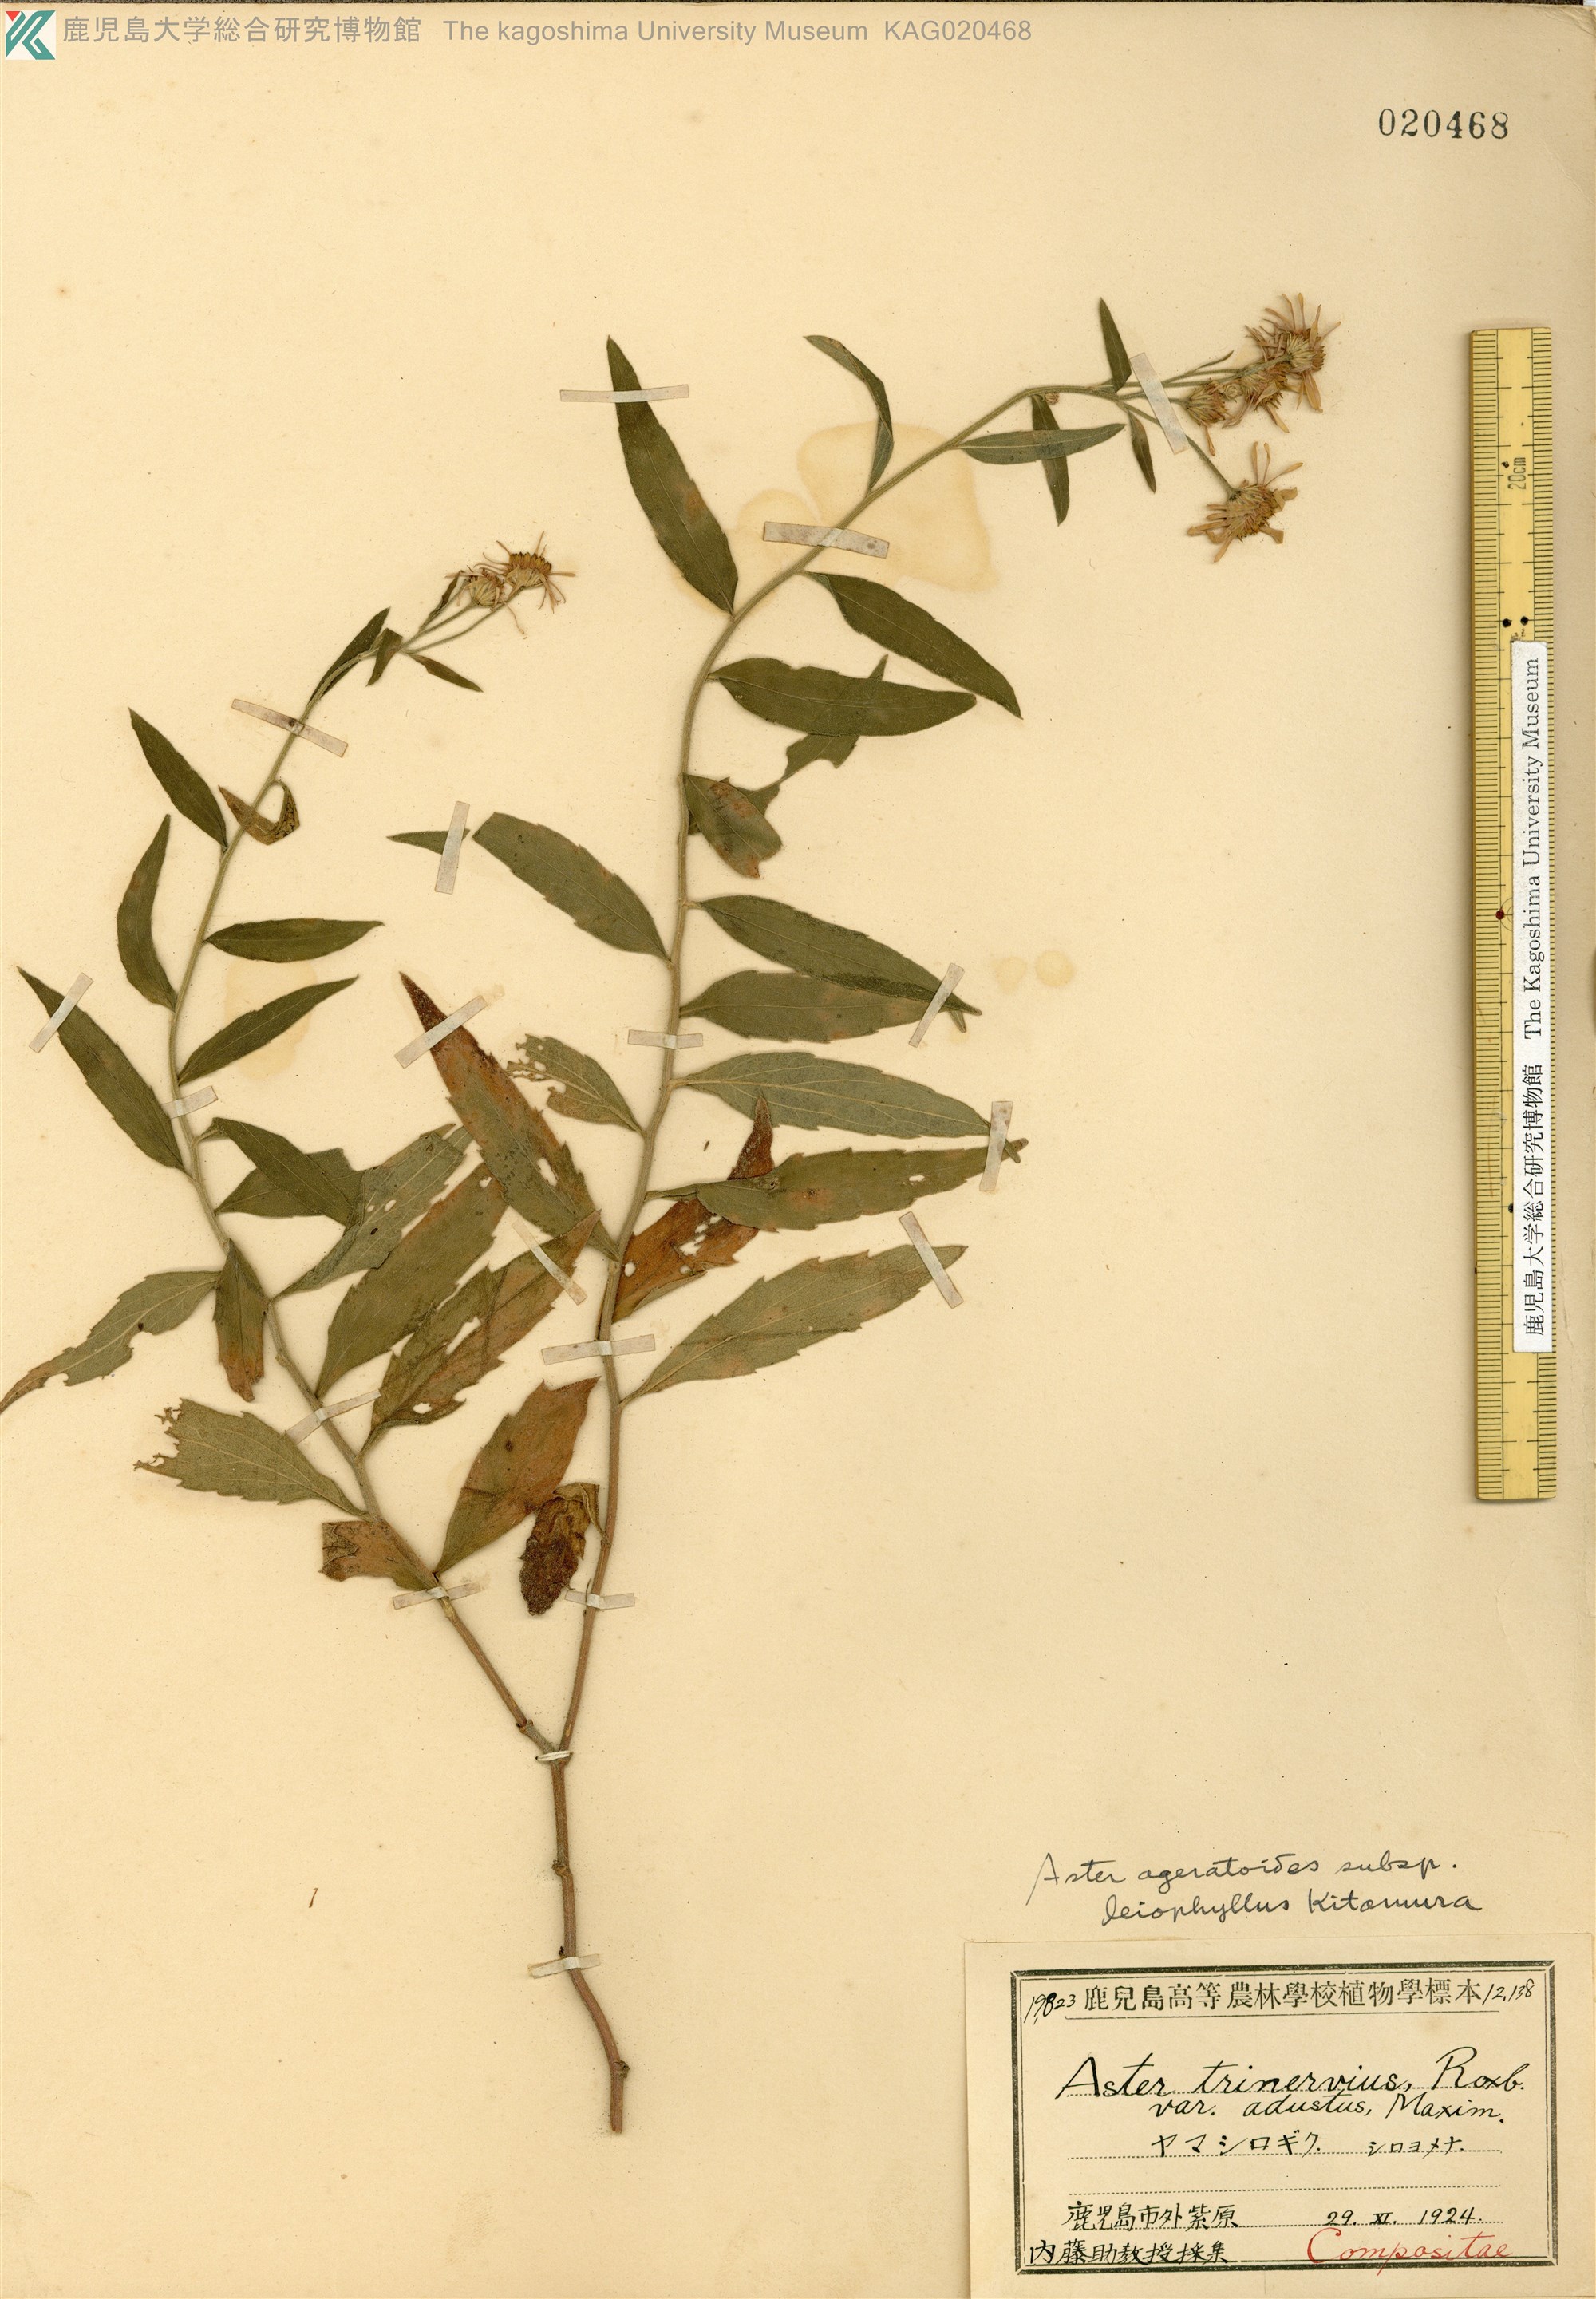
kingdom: Plantae
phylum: Tracheophyta
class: Magnoliopsida
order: Asterales
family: Asteraceae
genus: Aster
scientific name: Aster satsumensis
